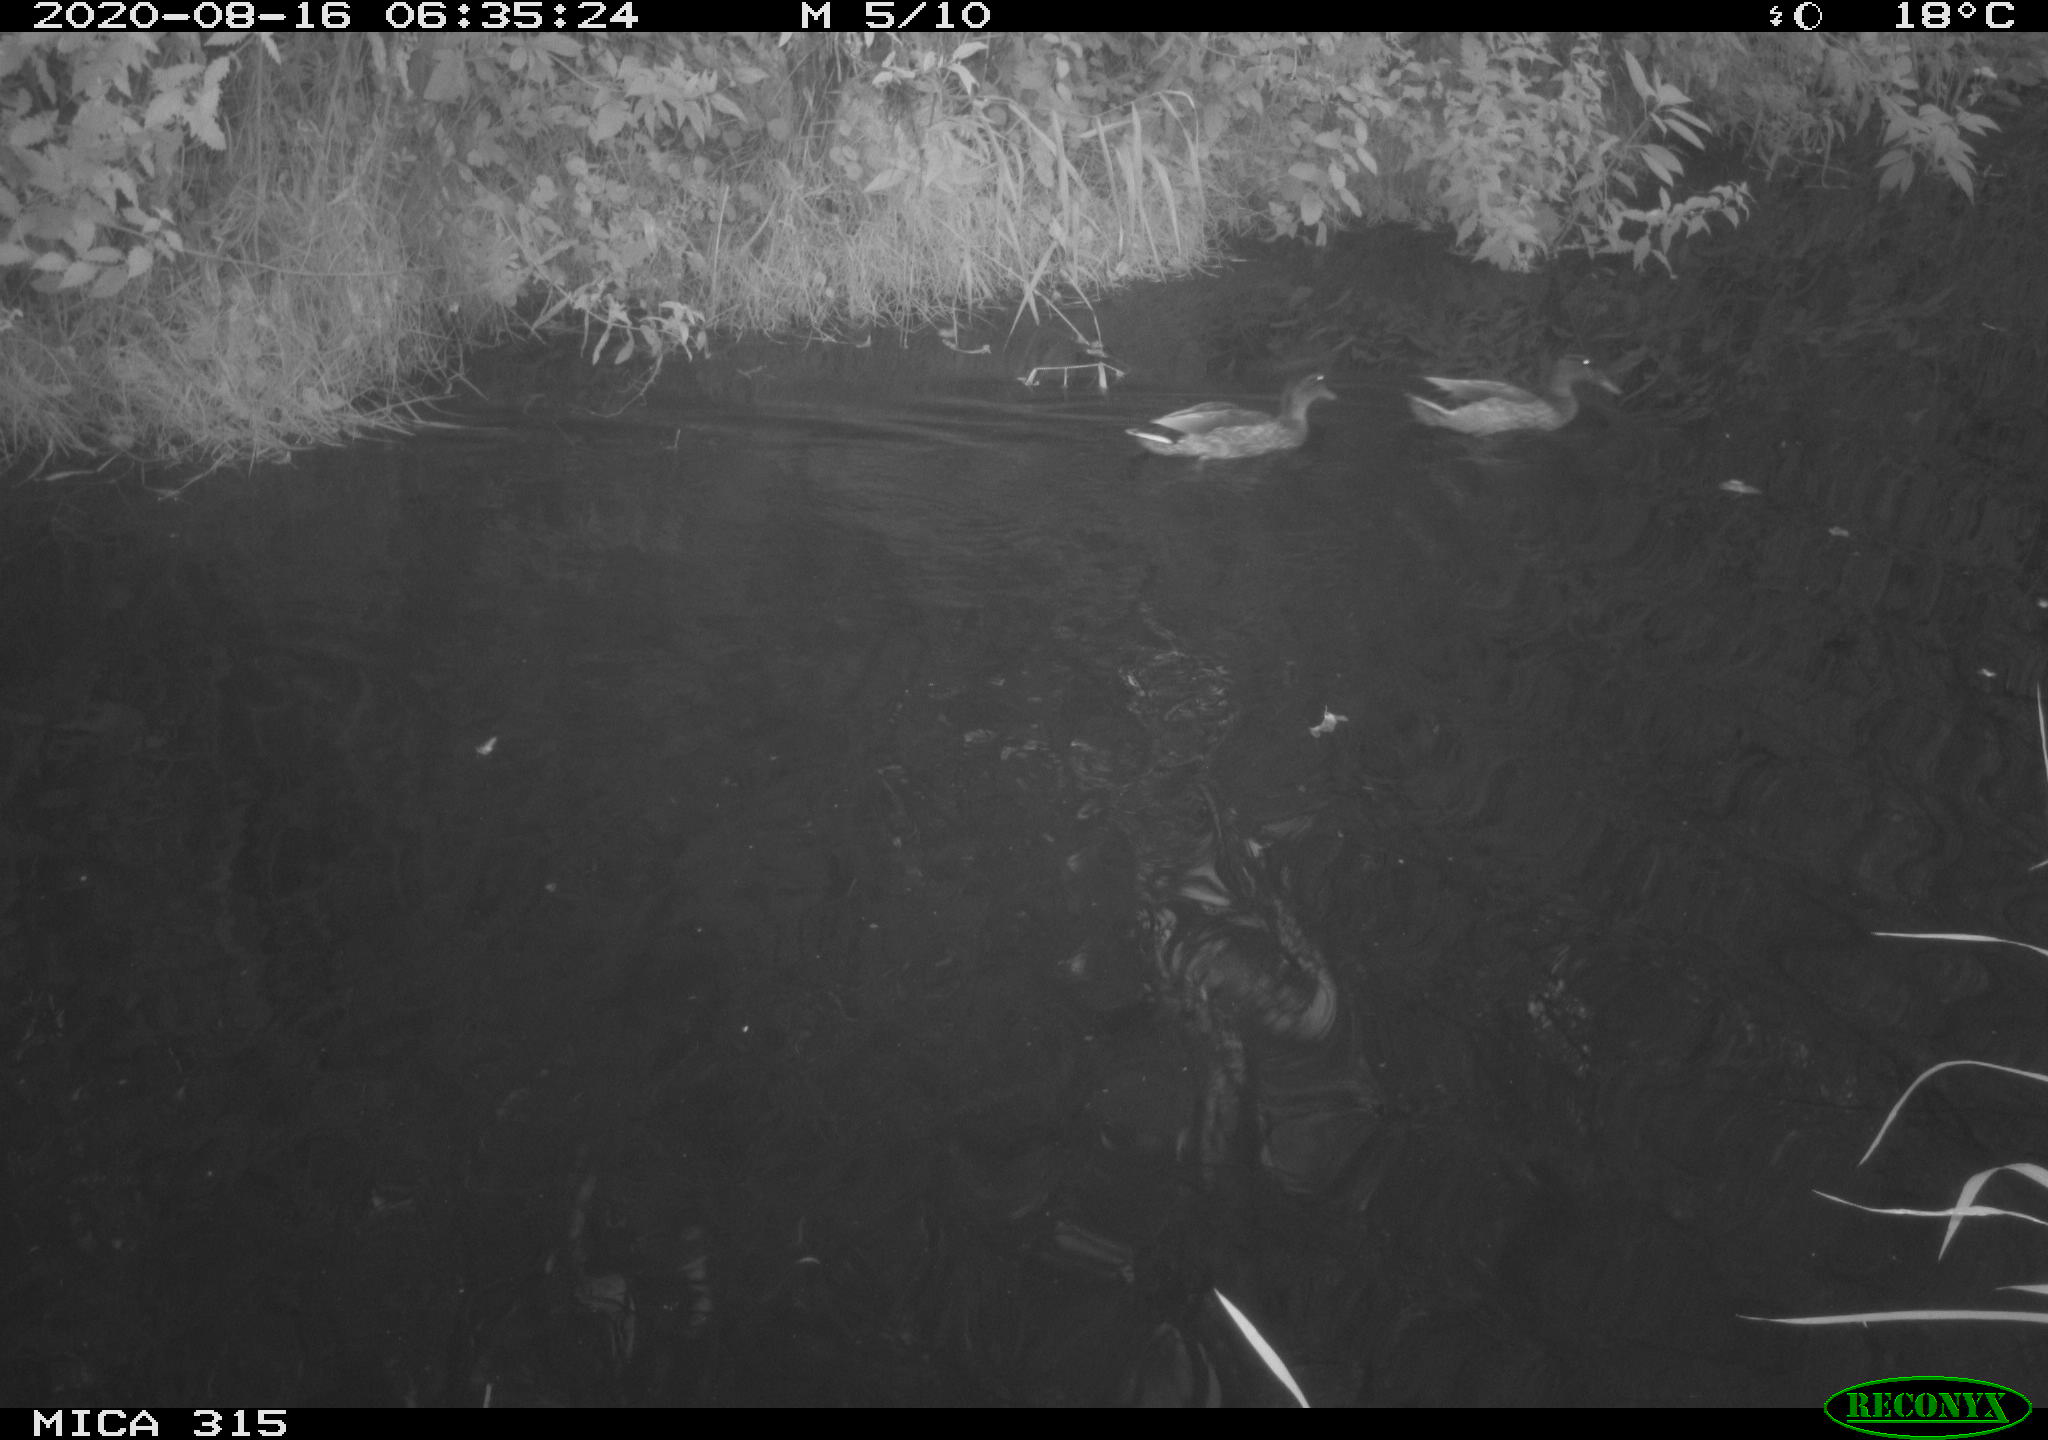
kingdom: Animalia
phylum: Chordata
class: Aves
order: Anseriformes
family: Anatidae
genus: Anas
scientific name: Anas platyrhynchos
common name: Mallard
